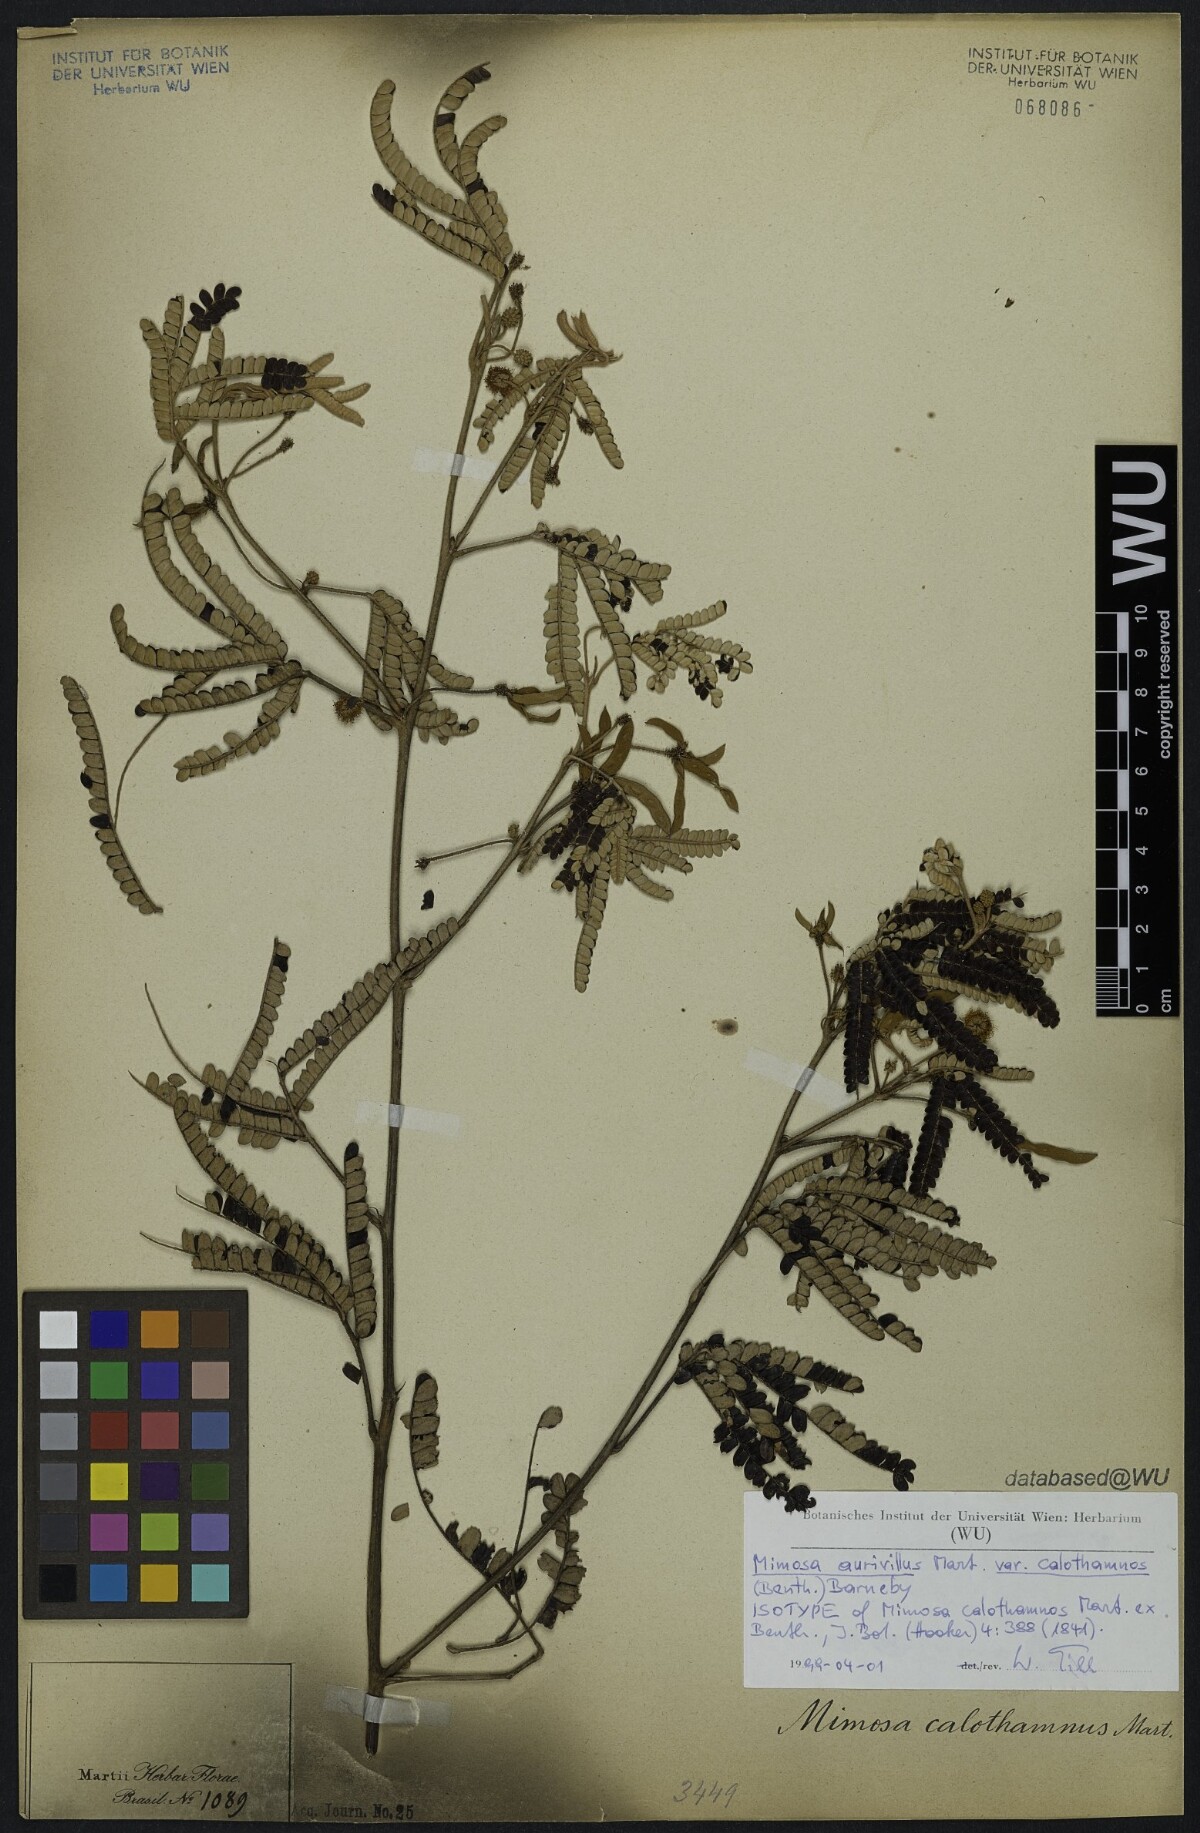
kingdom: Plantae
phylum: Tracheophyta
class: Magnoliopsida
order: Fabales
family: Fabaceae
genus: Mimosa
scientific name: Mimosa calothamnus
